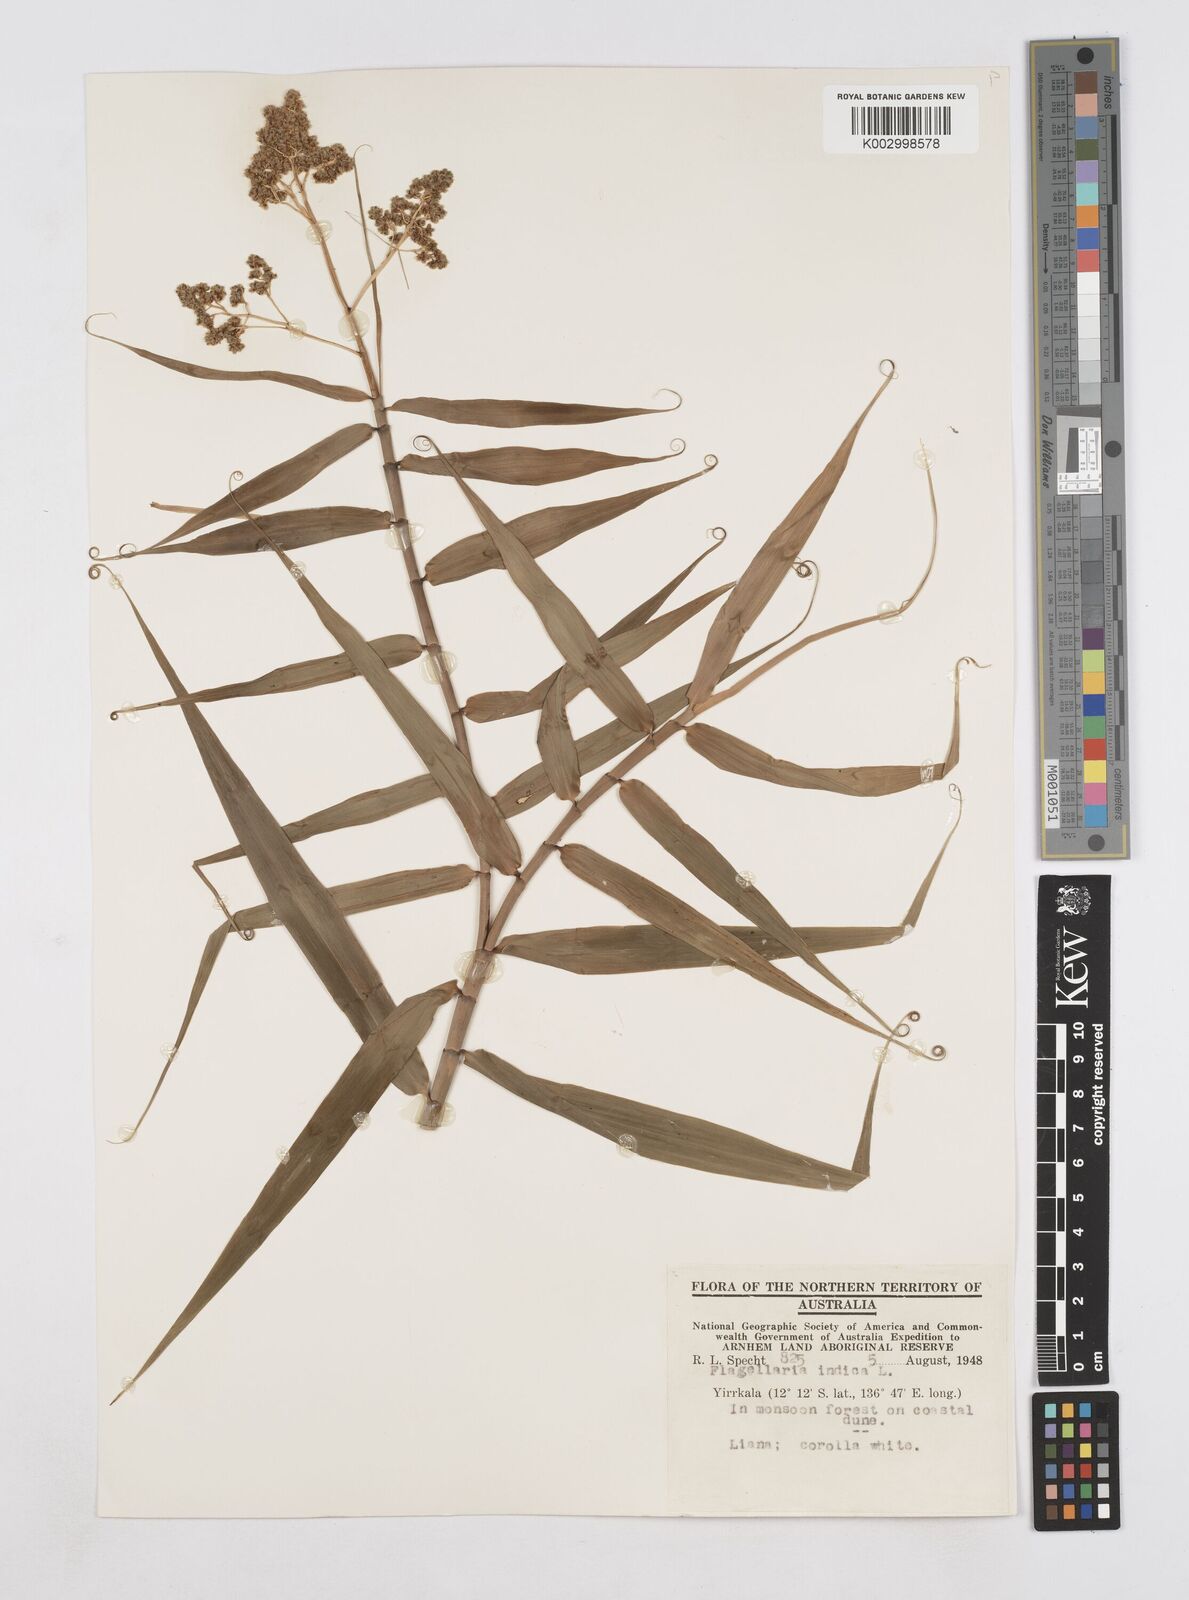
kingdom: Plantae
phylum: Tracheophyta
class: Liliopsida
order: Poales
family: Flagellariaceae
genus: Flagellaria
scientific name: Flagellaria indica
